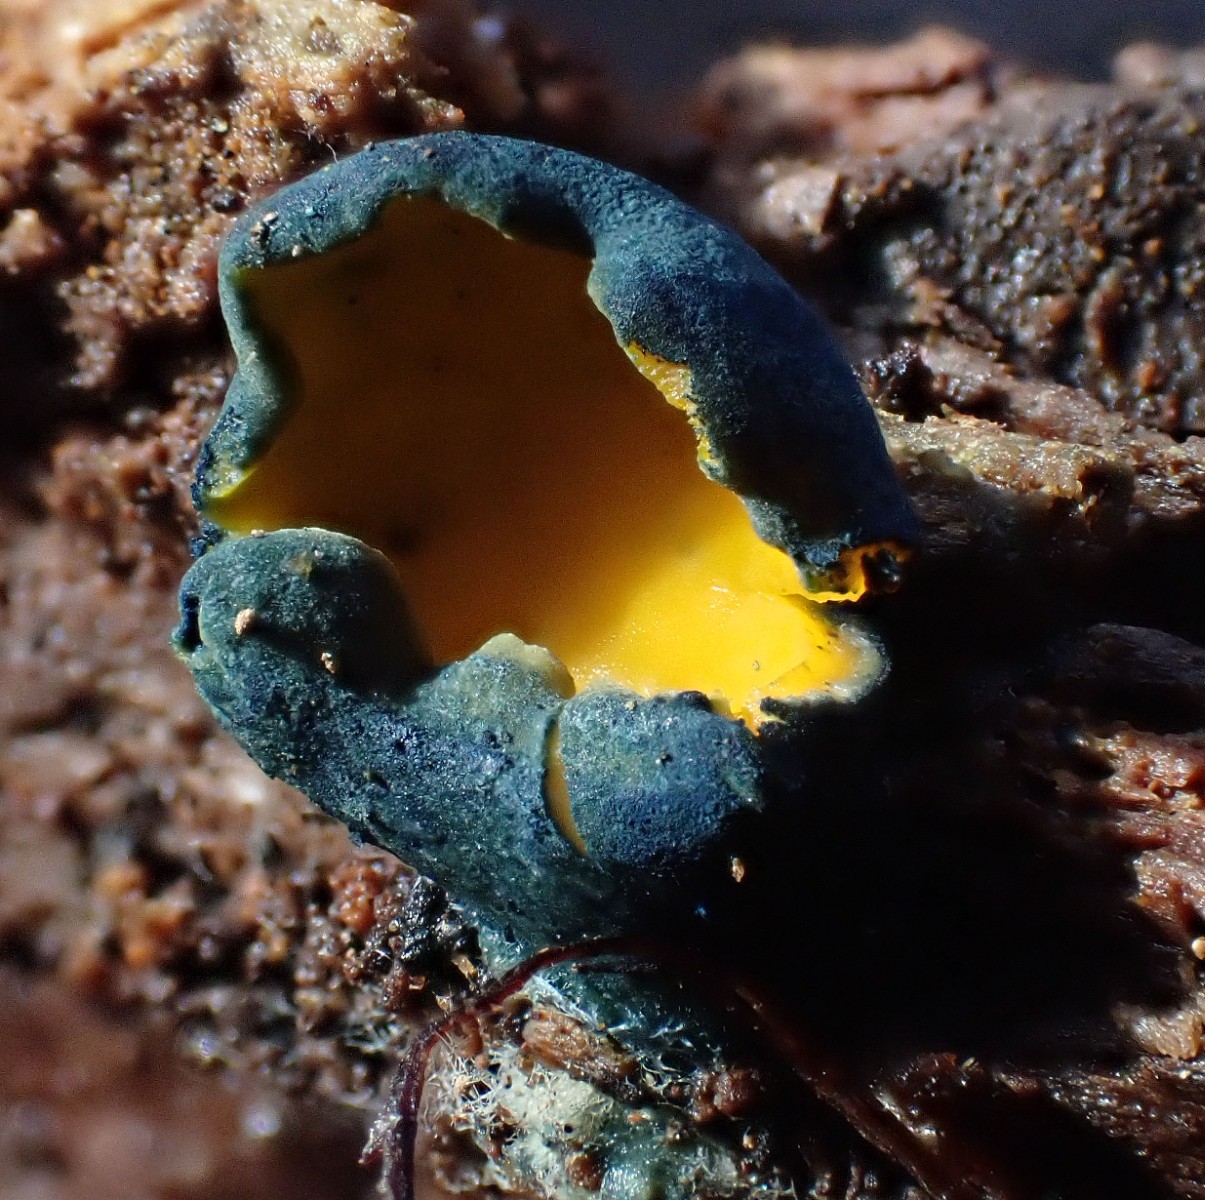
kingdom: Fungi
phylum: Ascomycota
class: Pezizomycetes
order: Pezizales
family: Caloscyphaceae
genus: Caloscypha
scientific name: Caloscypha fulgens
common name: jadebæger
